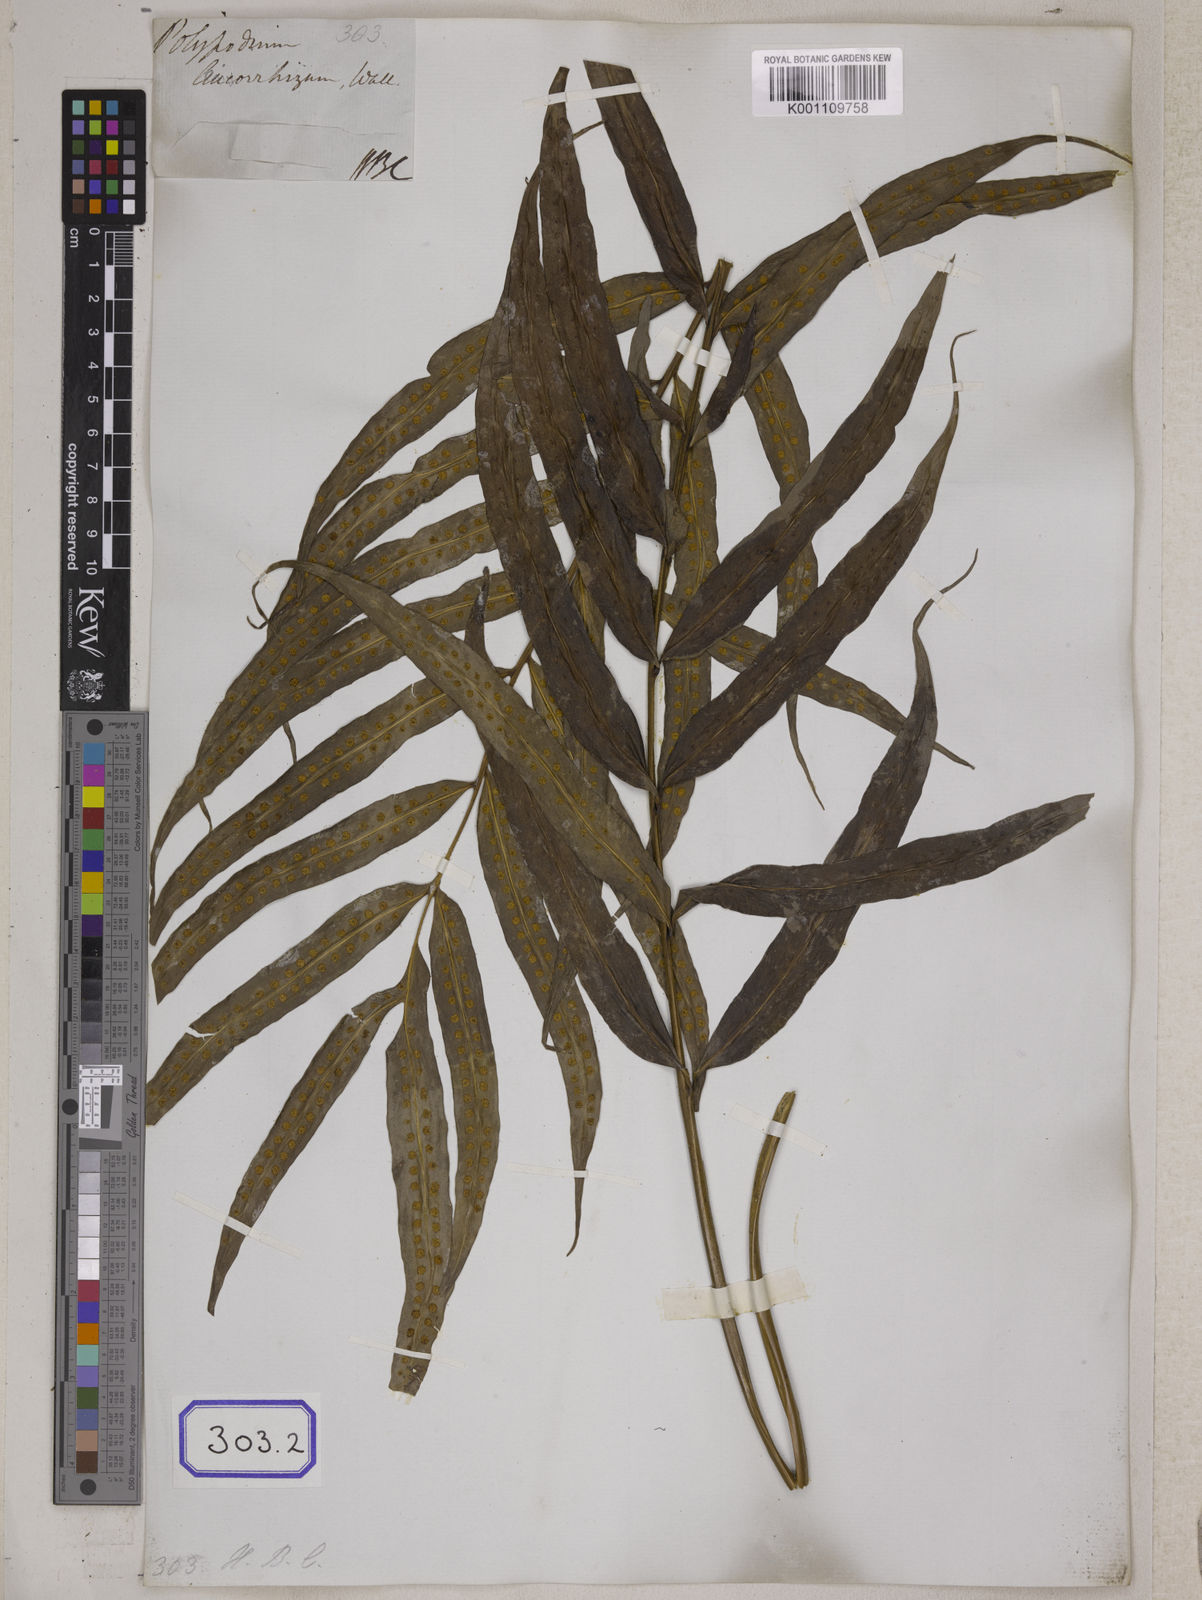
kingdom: Plantae
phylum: Tracheophyta
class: Polypodiopsida
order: Polypodiales
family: Polypodiaceae
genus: Microsorum
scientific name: Microsorum cuspidatum
